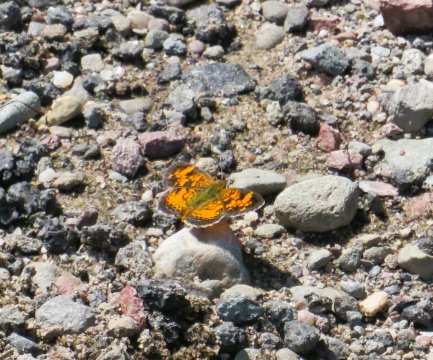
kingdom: Animalia
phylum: Arthropoda
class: Insecta
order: Lepidoptera
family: Nymphalidae
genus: Phyciodes
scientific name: Phyciodes tharos
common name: Northern Crescent
